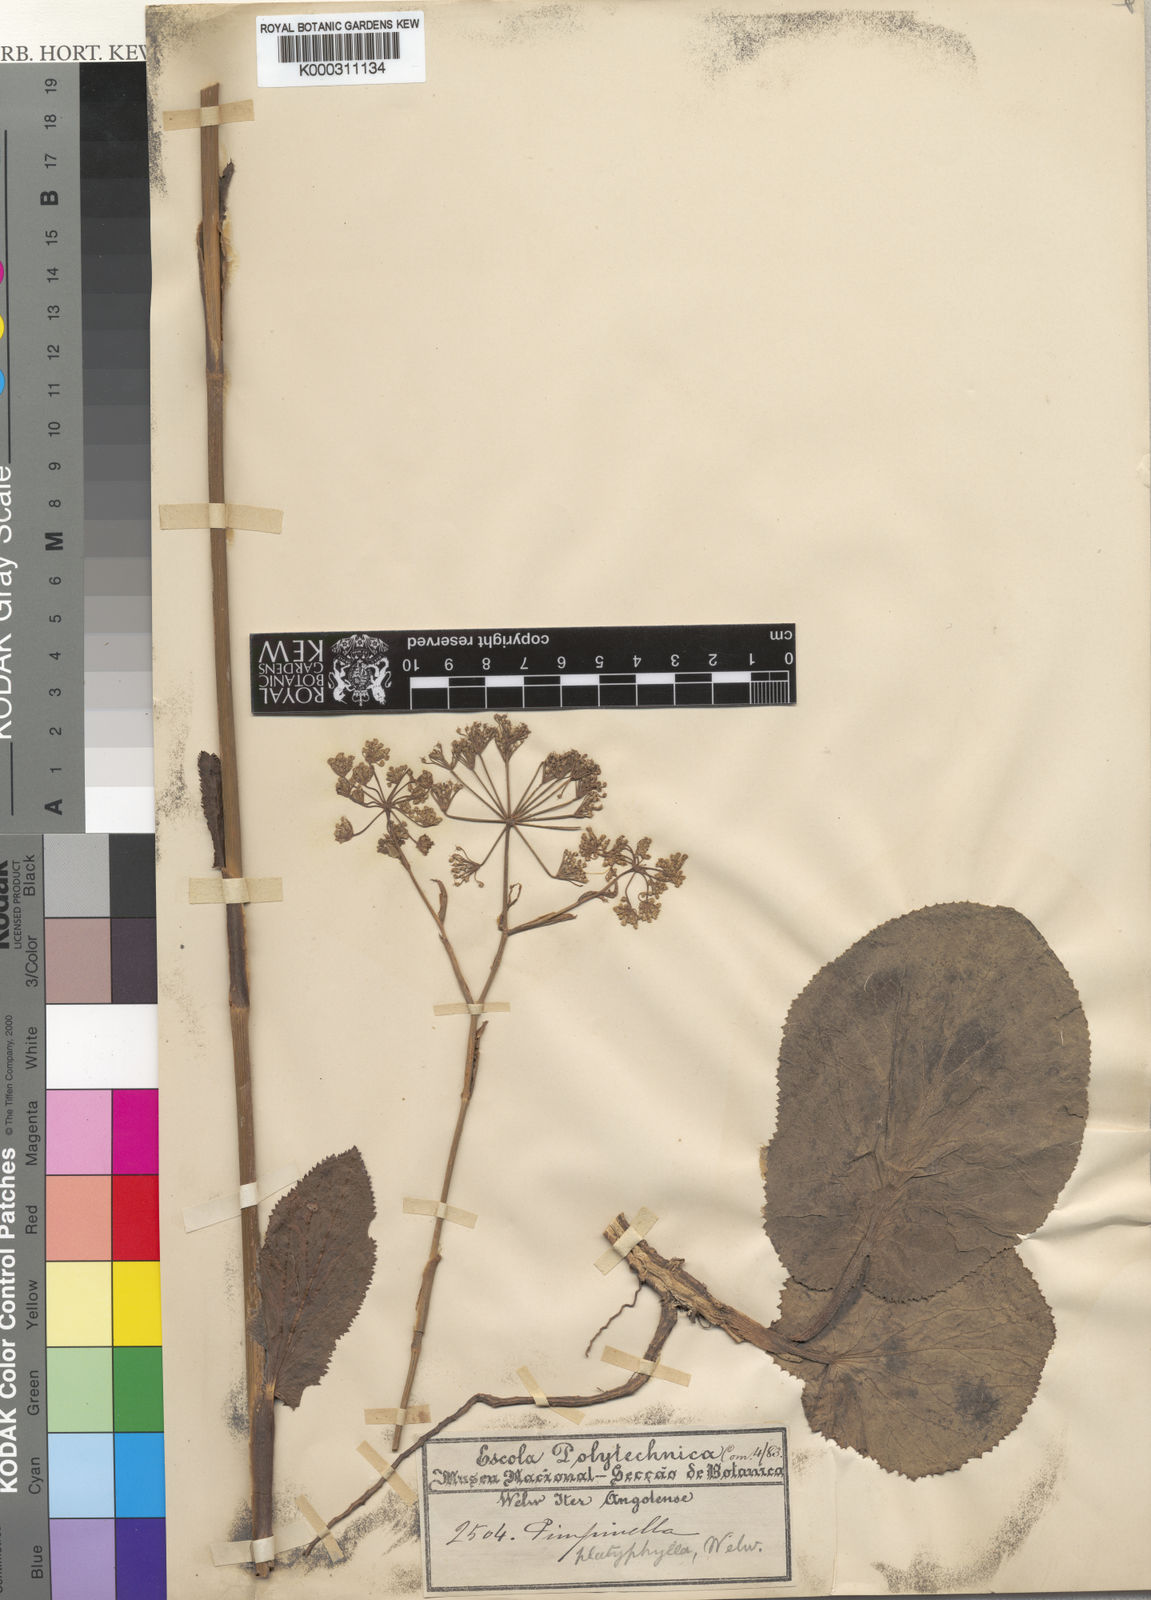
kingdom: Plantae
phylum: Tracheophyta
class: Magnoliopsida
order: Apiales
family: Apiaceae
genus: Pimpinella
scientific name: Pimpinella
